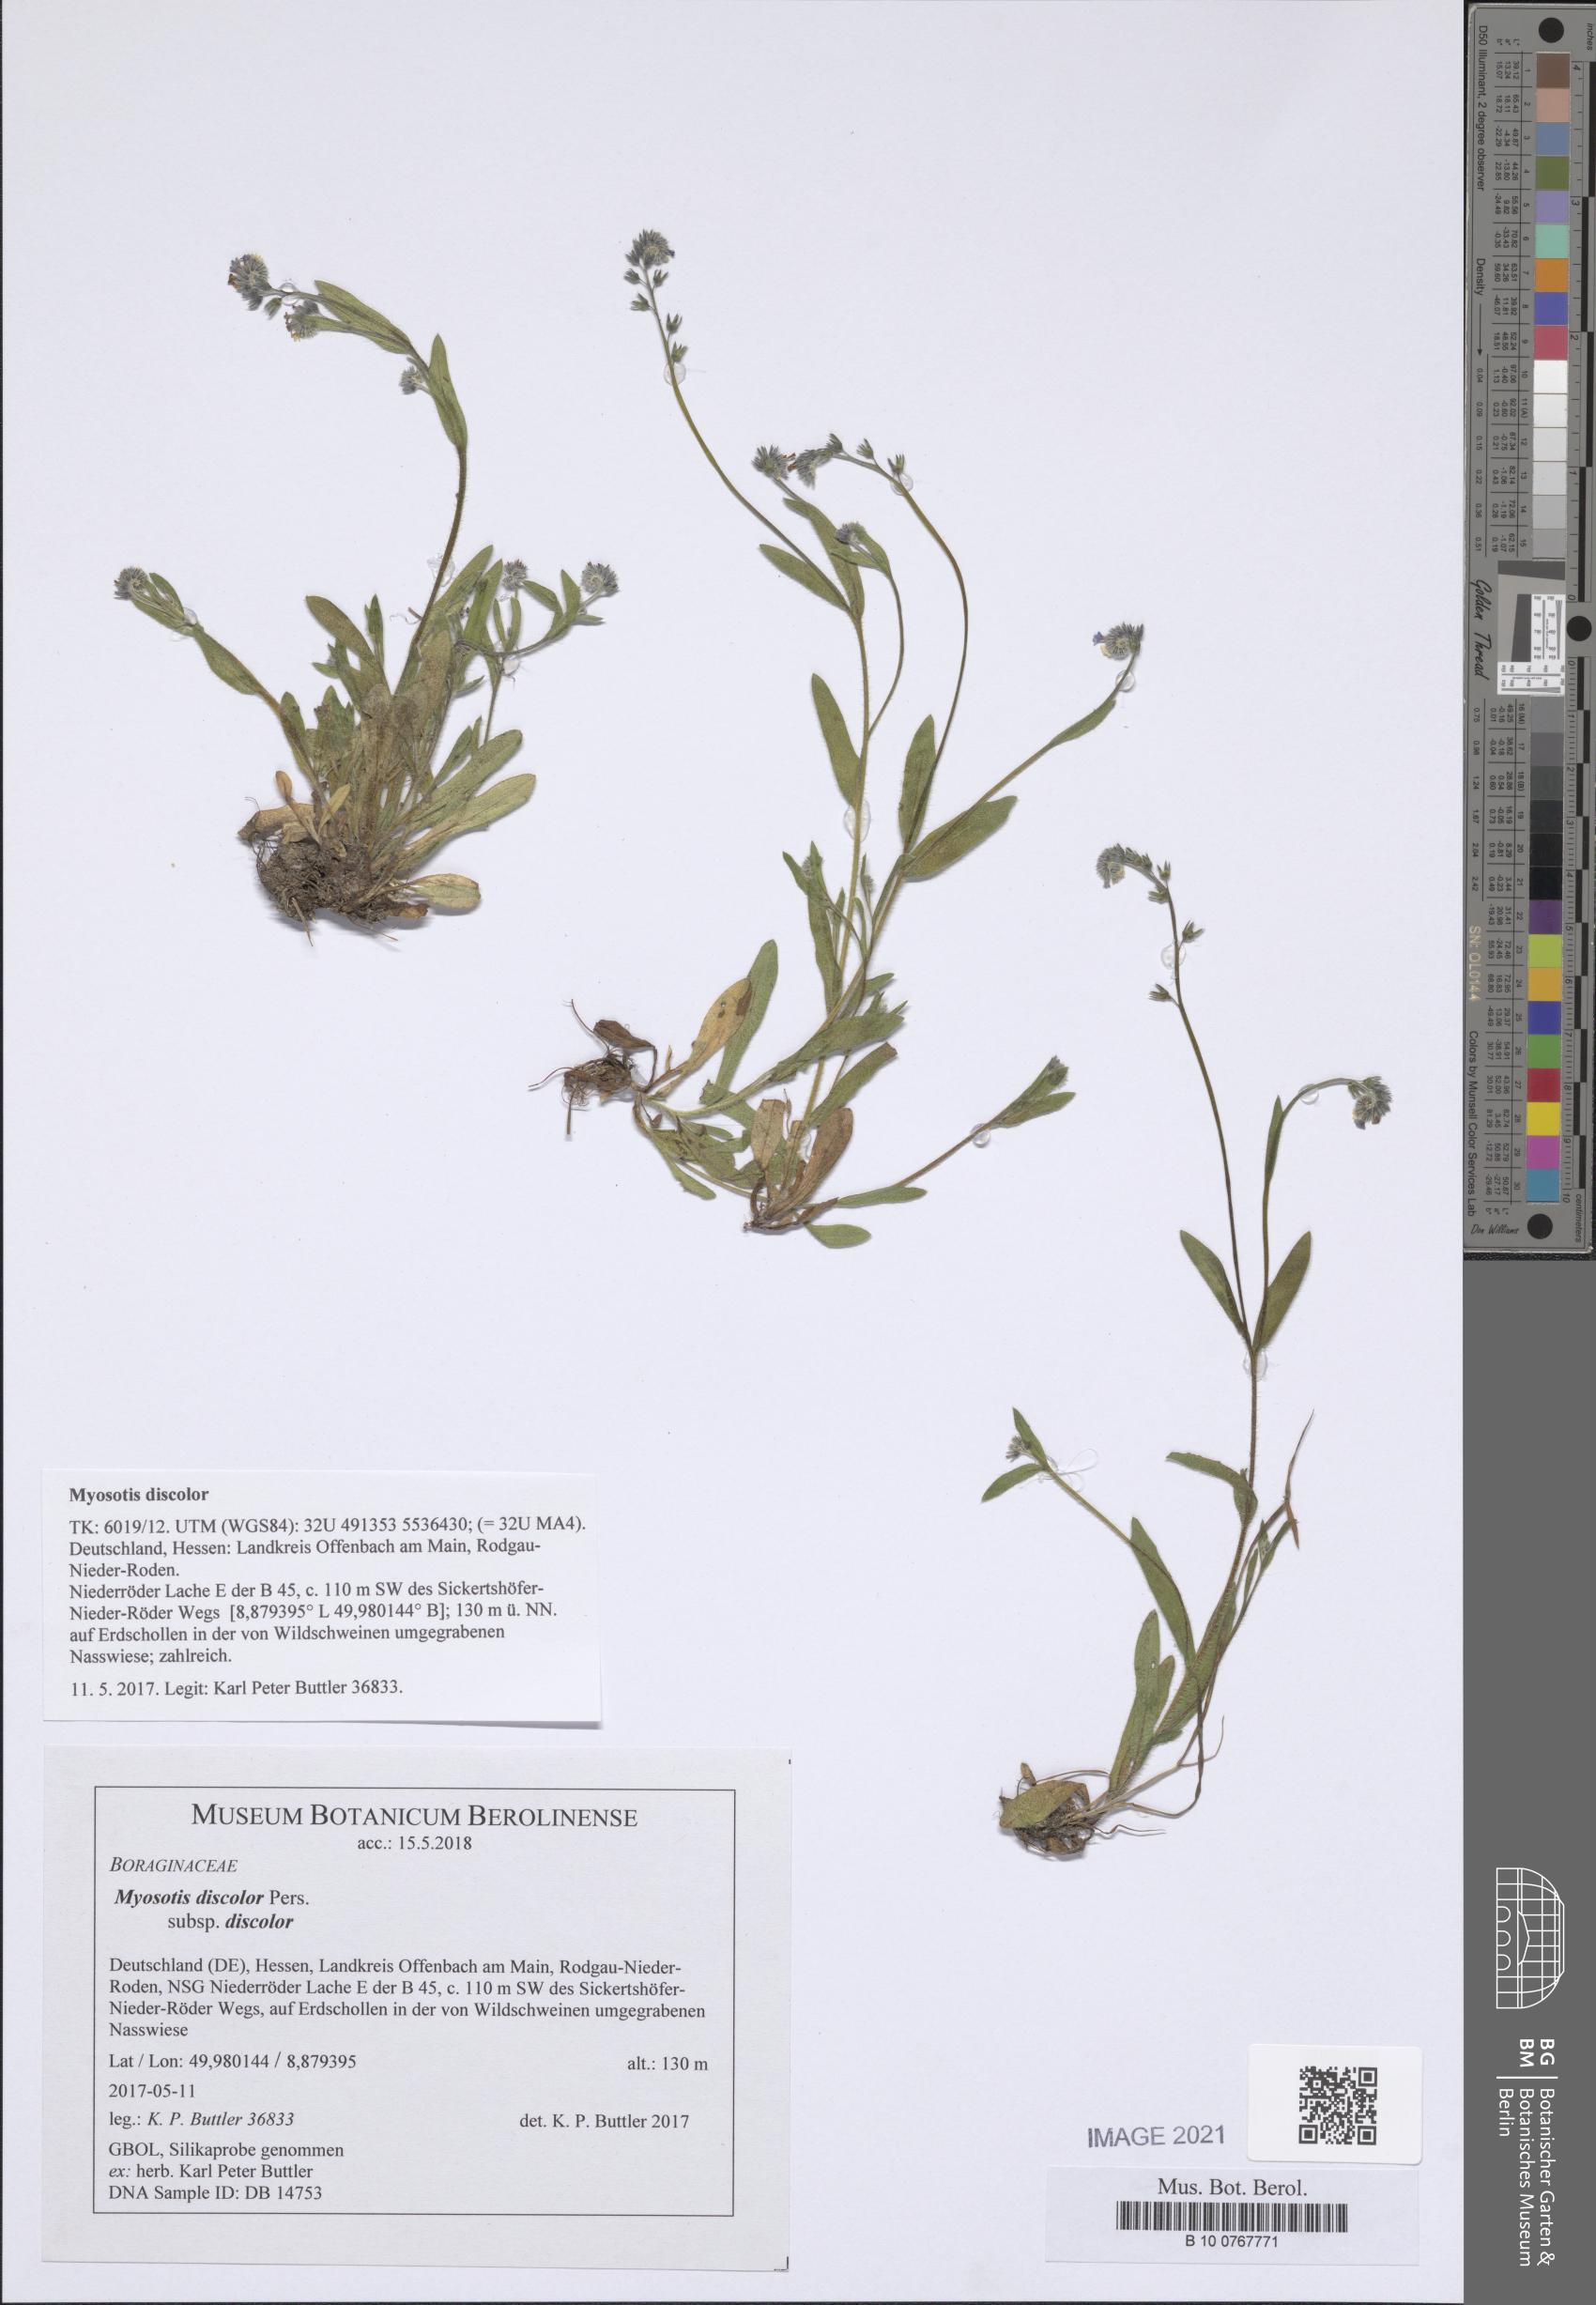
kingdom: Plantae
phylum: Tracheophyta
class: Magnoliopsida
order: Boraginales
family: Boraginaceae
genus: Myosotis
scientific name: Myosotis discolor
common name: Changing forget-me-not
